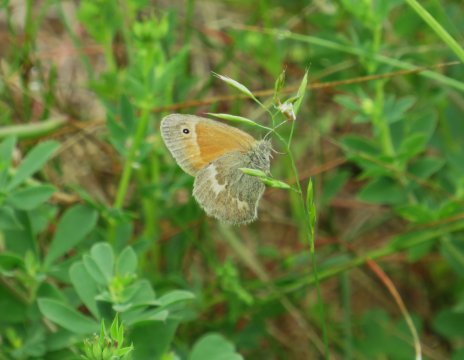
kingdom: Animalia
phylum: Arthropoda
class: Insecta
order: Lepidoptera
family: Nymphalidae
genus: Coenonympha
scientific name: Coenonympha tullia
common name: Large Heath
